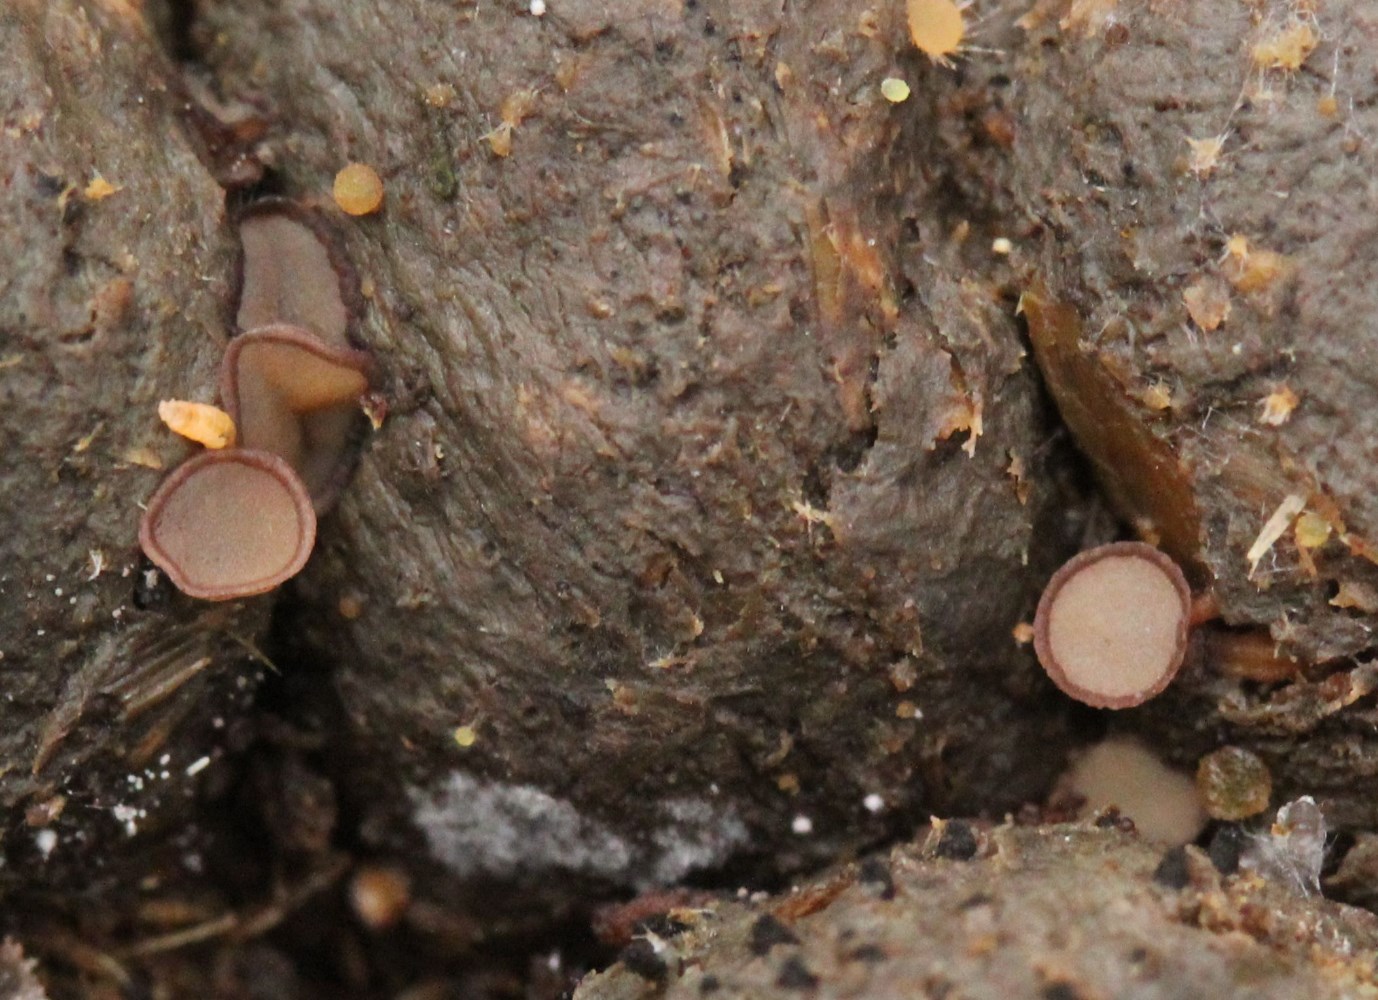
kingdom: Fungi
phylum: Ascomycota
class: Pezizomycetes
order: Pezizales
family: Pyronemataceae
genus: Pseudombrophila
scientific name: Pseudombrophila
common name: randbæger
